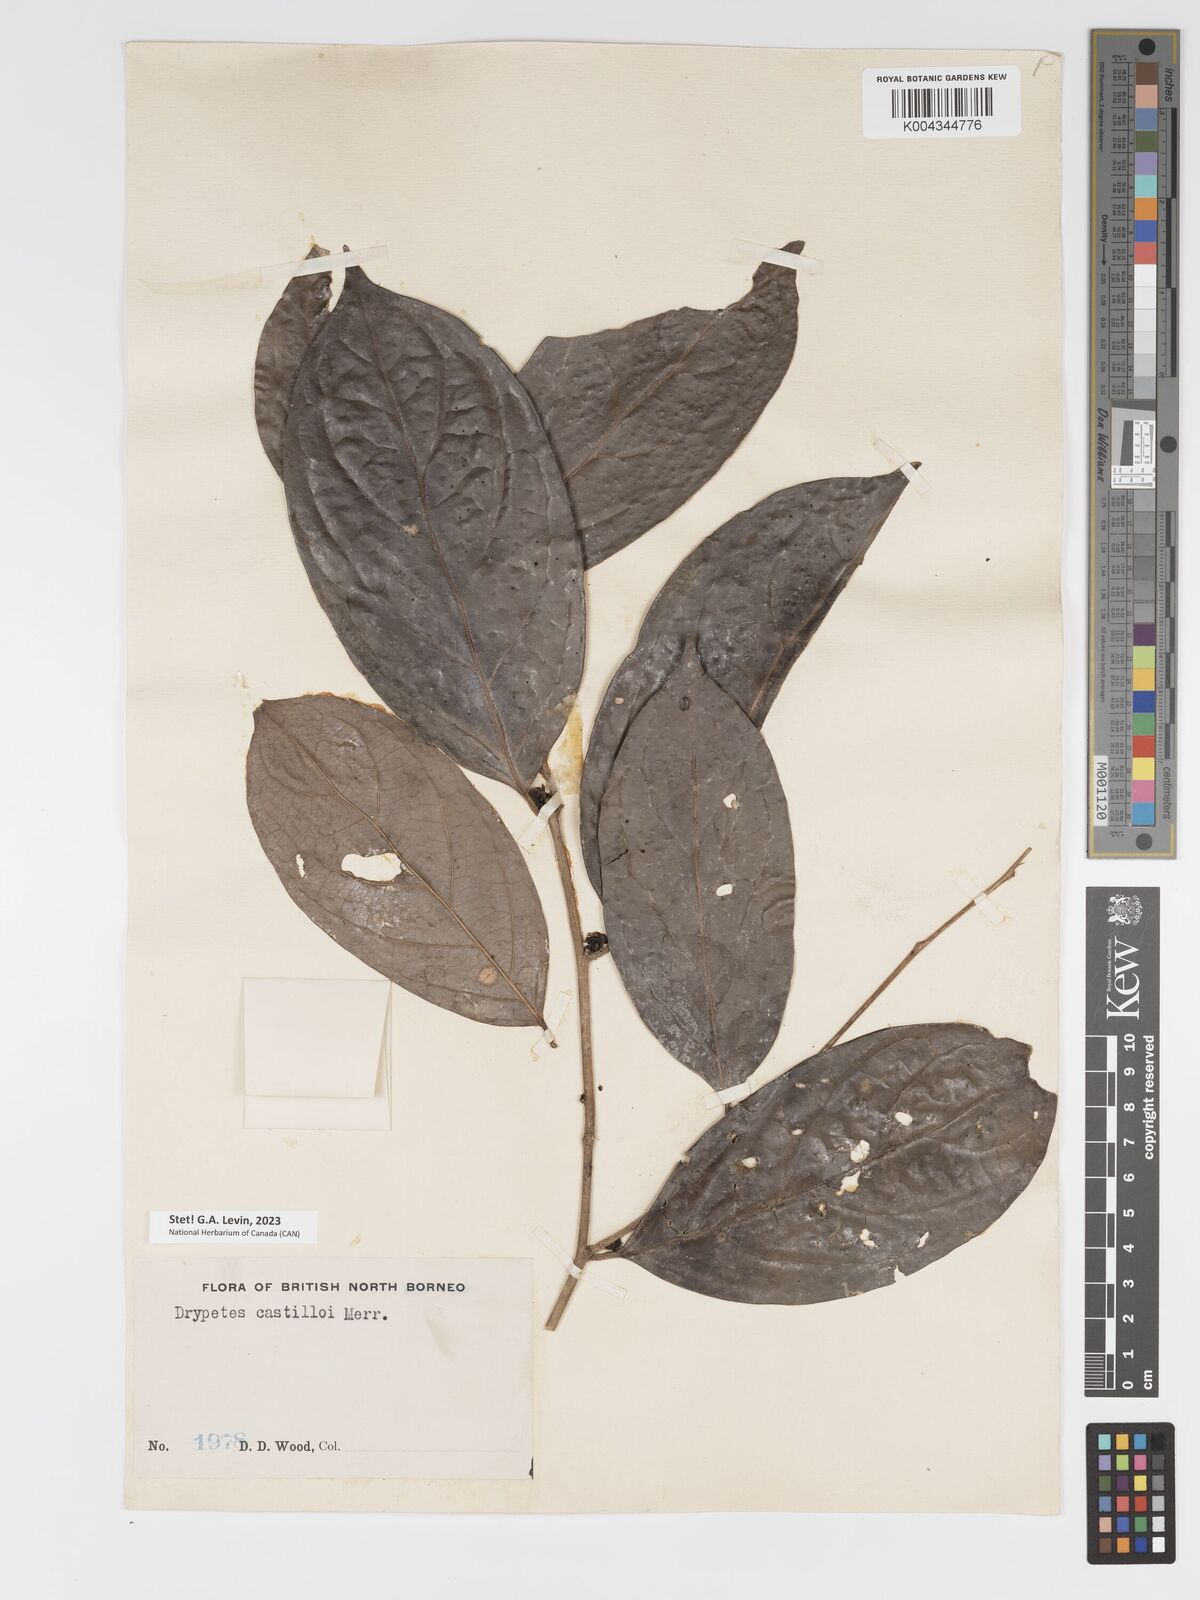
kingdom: Plantae
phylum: Tracheophyta
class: Magnoliopsida
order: Malpighiales
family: Putranjivaceae
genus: Drypetes
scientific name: Drypetes castilloi
